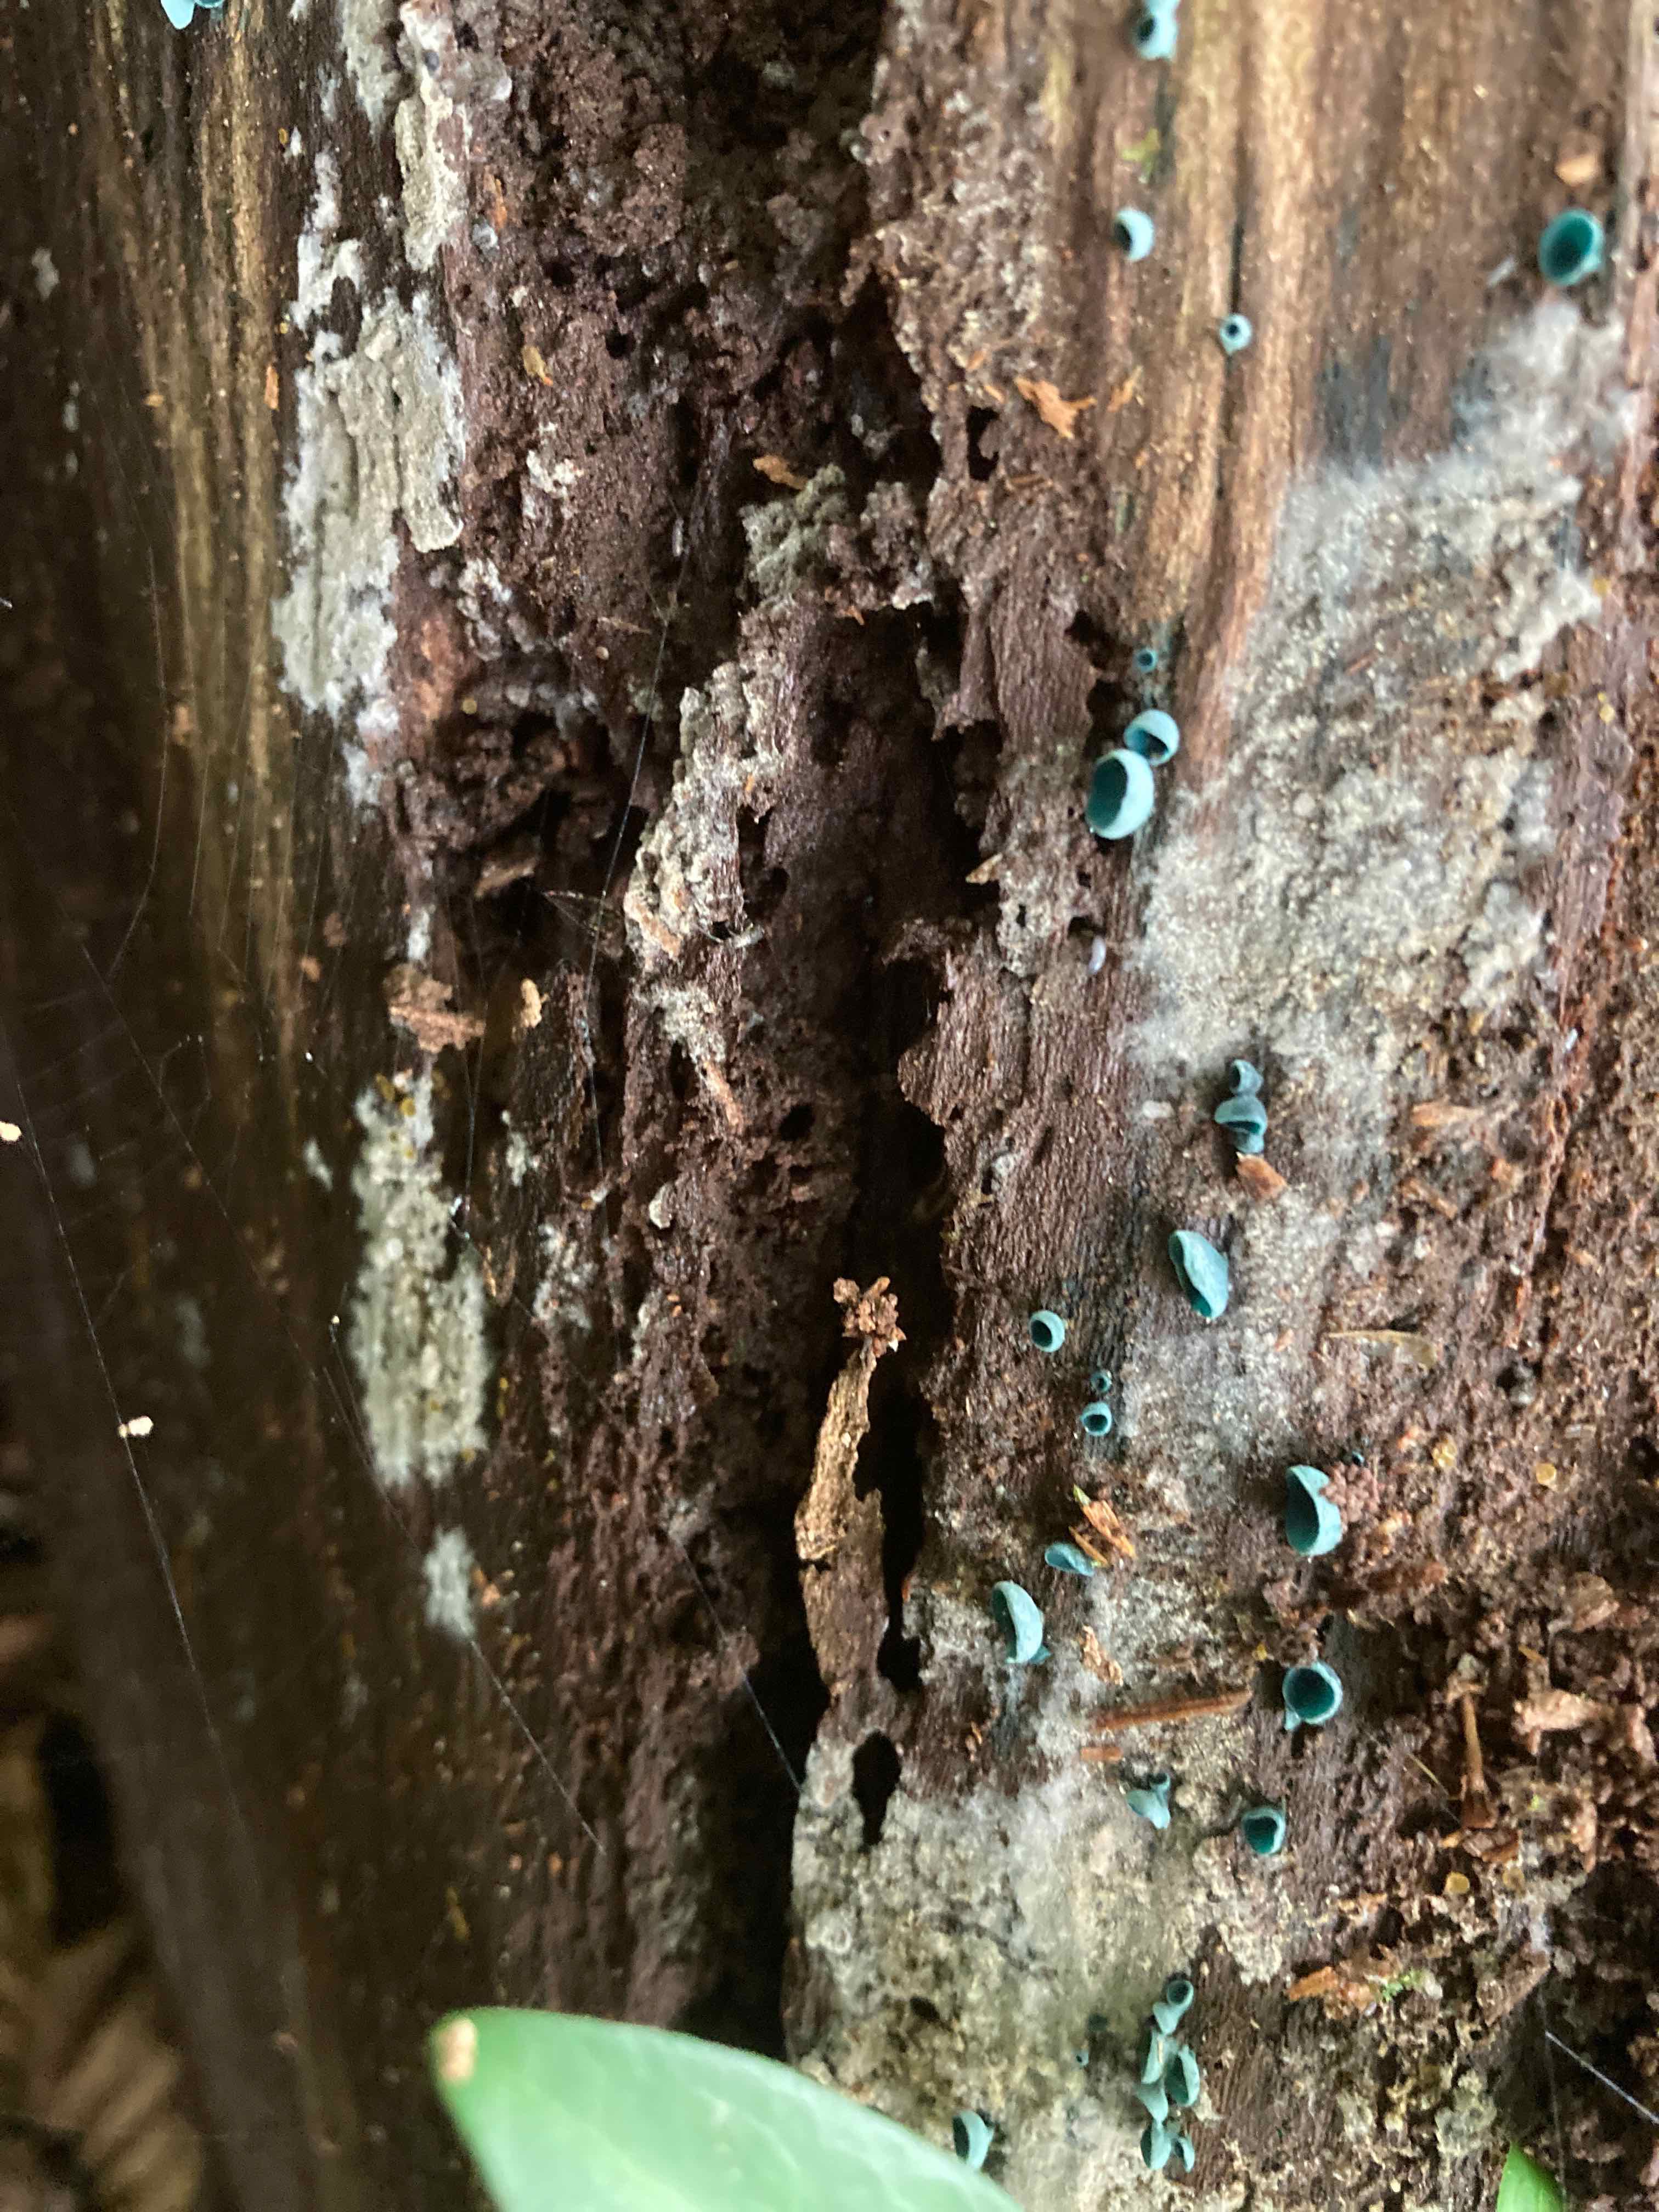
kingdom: Fungi
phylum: Ascomycota
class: Leotiomycetes
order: Helotiales
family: Chlorociboriaceae
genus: Chlorociboria
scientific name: Chlorociboria aeruginascens
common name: almindelig grønskive
